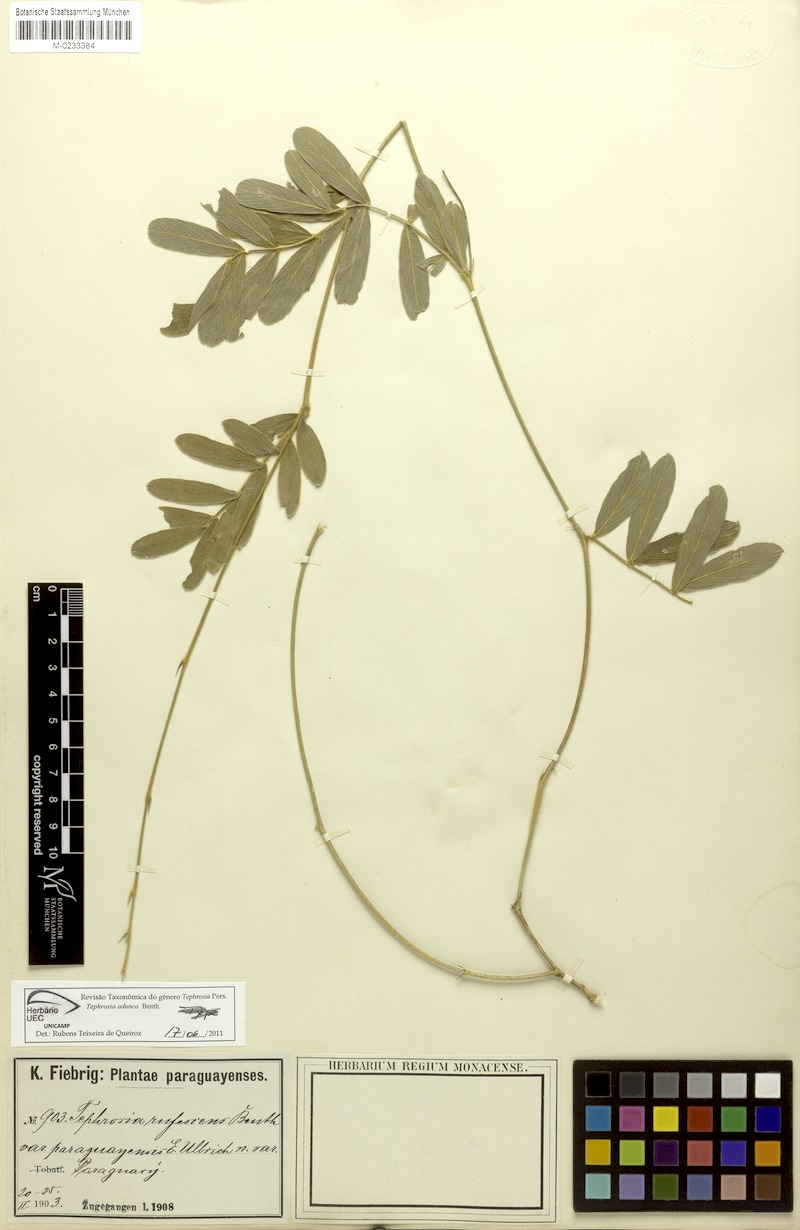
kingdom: Plantae
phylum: Tracheophyta
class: Magnoliopsida
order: Fabales
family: Fabaceae
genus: Tephrosia
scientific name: Tephrosia adunca
